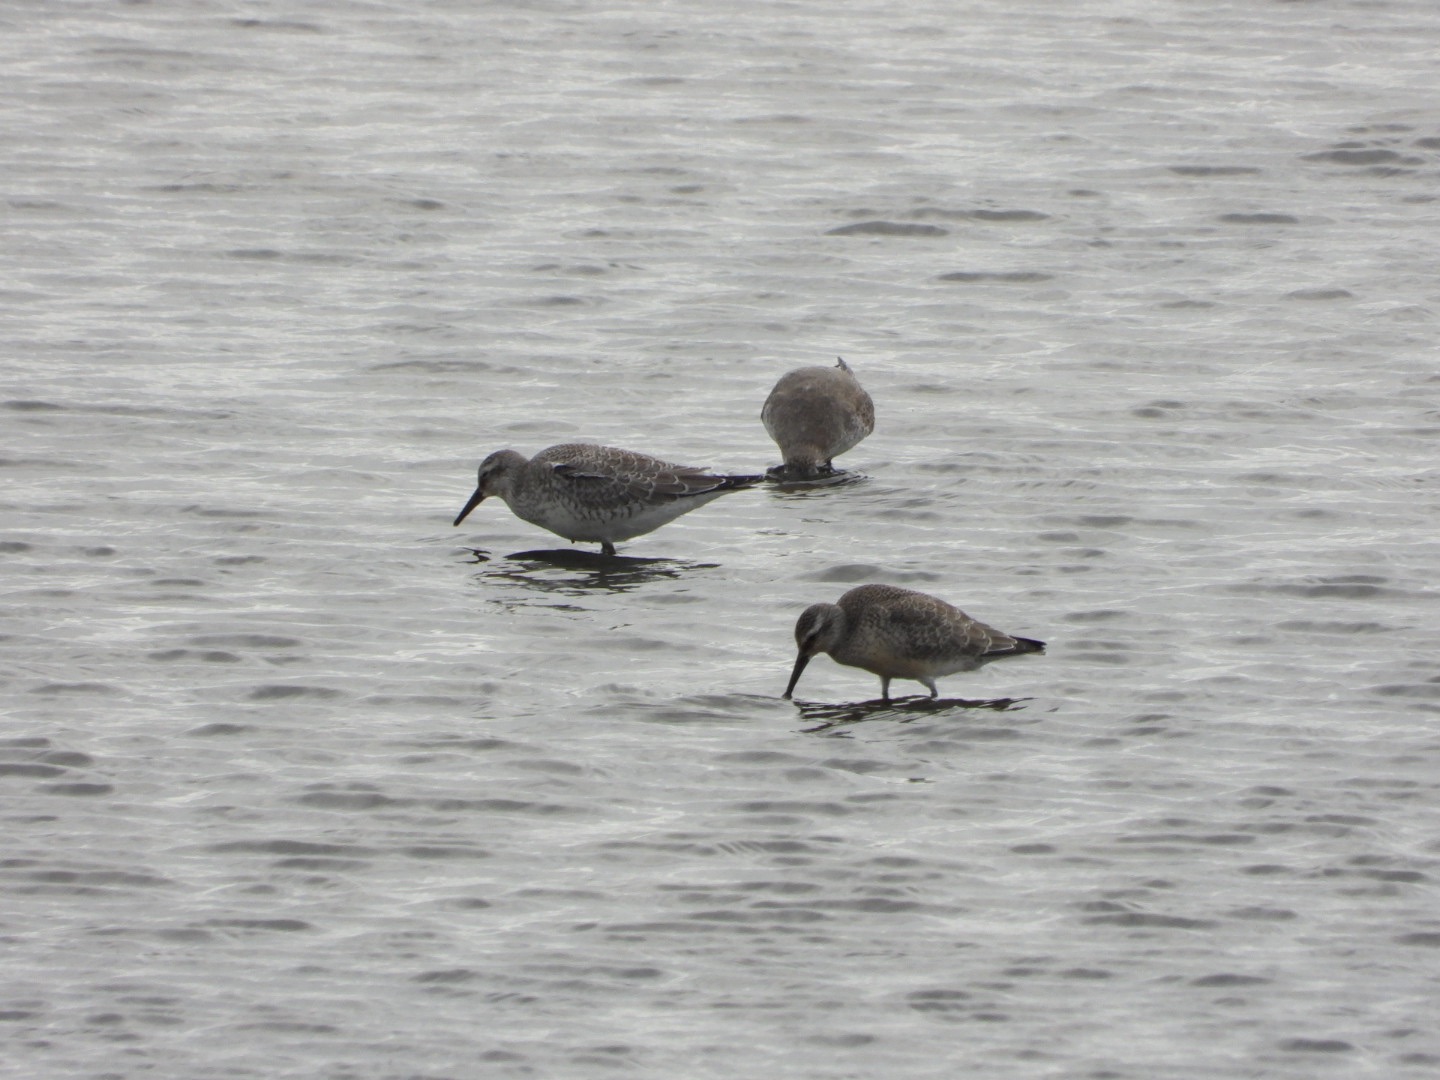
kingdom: Animalia
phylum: Chordata
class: Aves
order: Charadriiformes
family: Scolopacidae
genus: Calidris
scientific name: Calidris canutus
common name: Islandsk ryle
